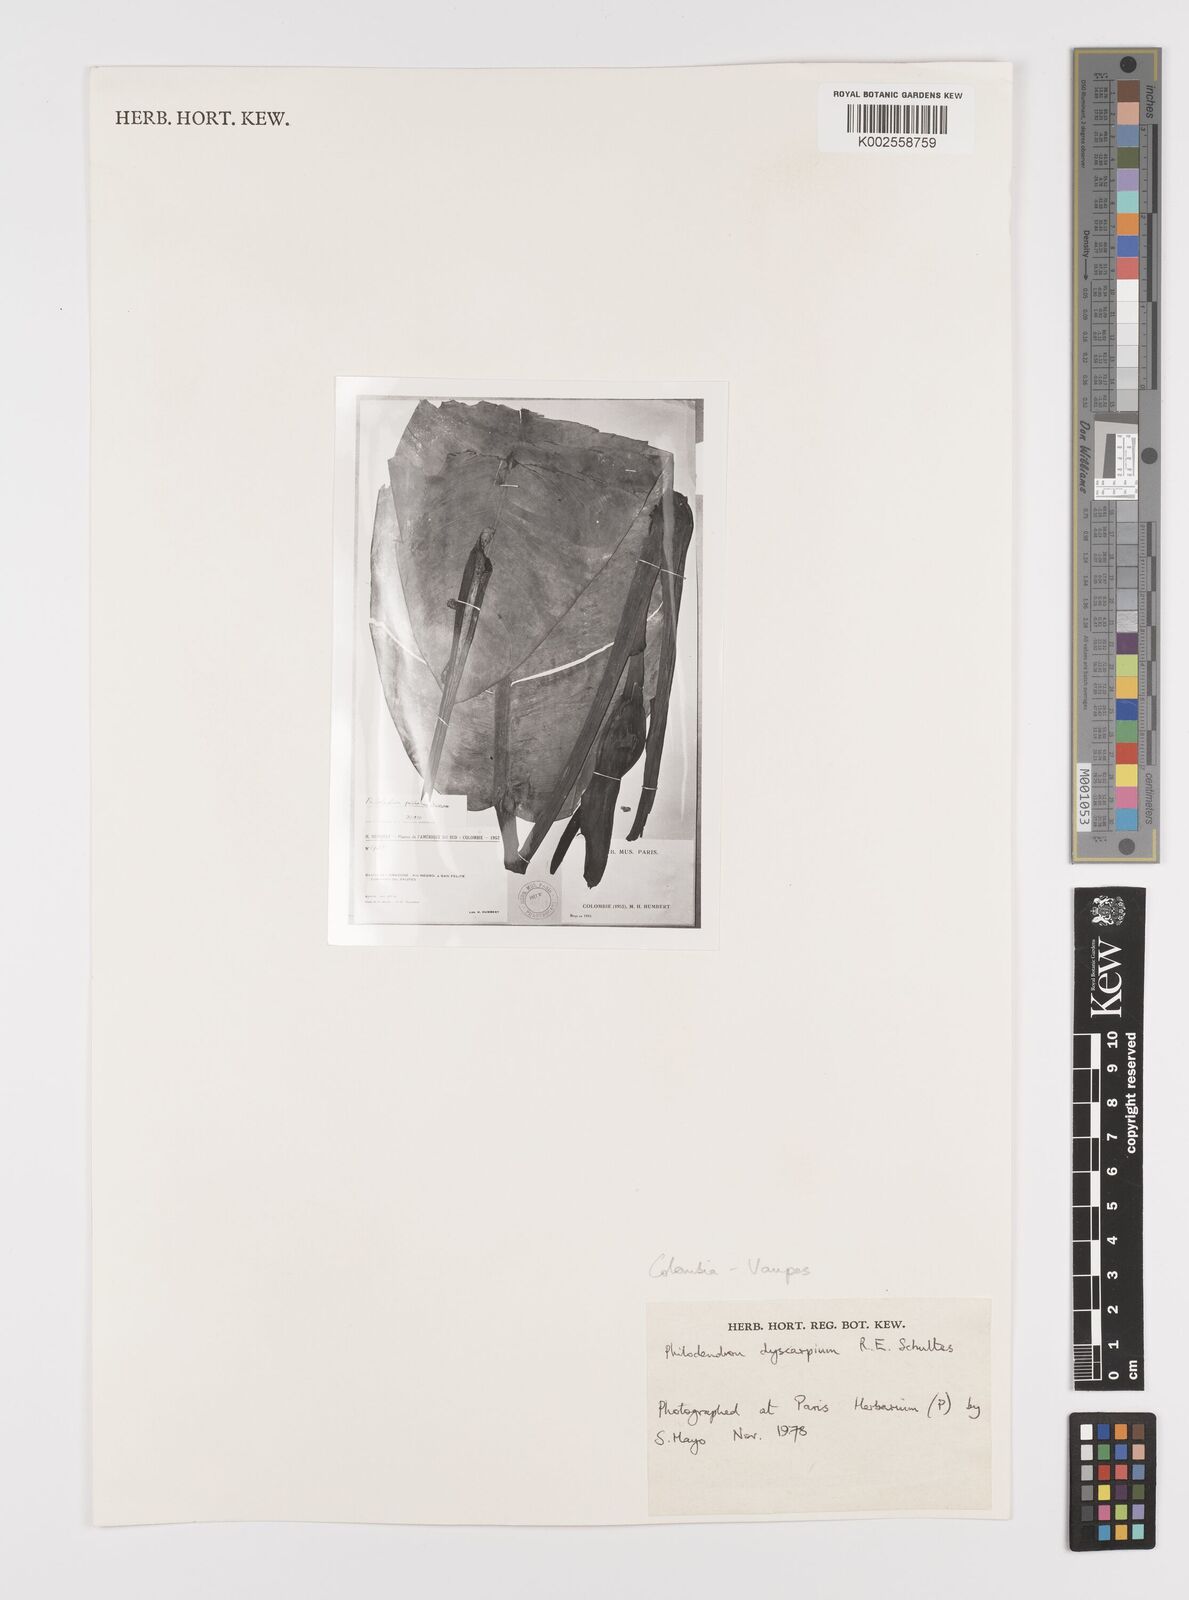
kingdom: Plantae
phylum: Tracheophyta
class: Liliopsida
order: Alismatales
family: Araceae
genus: Philodendron
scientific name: Philodendron dyscarpium
